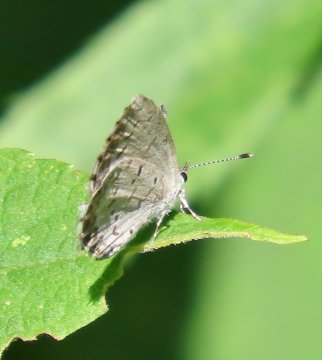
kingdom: Animalia
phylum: Arthropoda
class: Insecta
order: Lepidoptera
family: Lycaenidae
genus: Cyaniris
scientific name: Cyaniris neglecta
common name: Summer Azure
